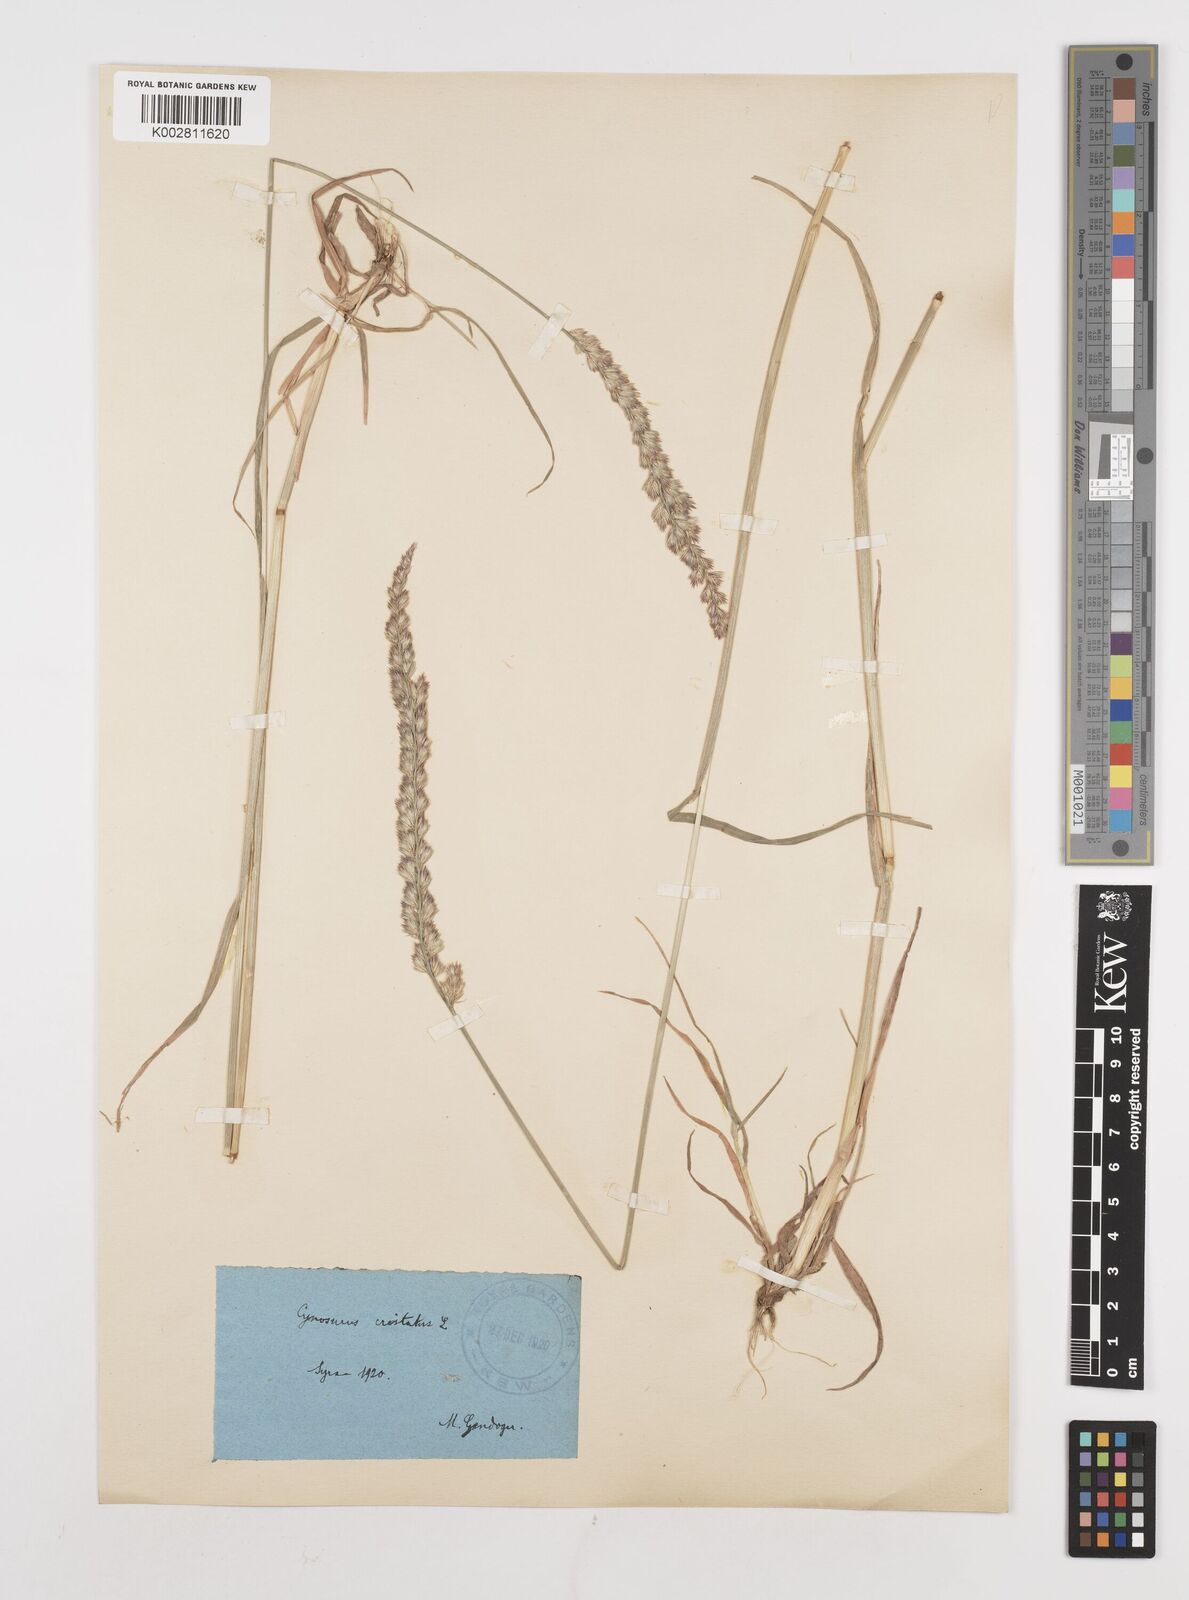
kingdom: Plantae
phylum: Tracheophyta
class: Liliopsida
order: Poales
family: Poaceae
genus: Cynosurus
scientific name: Cynosurus cristatus
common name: Crested dog's-tail
